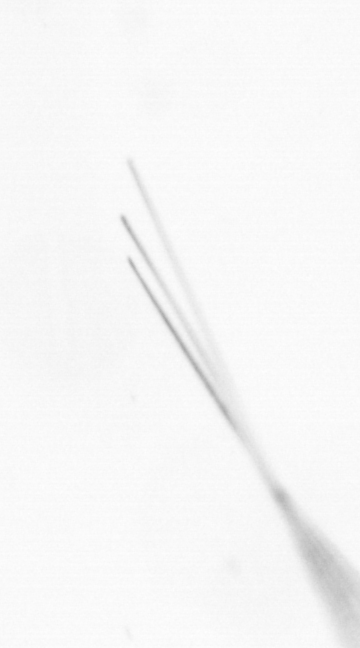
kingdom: Chromista
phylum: Ochrophyta
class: Bacillariophyceae
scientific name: Bacillariophyceae
